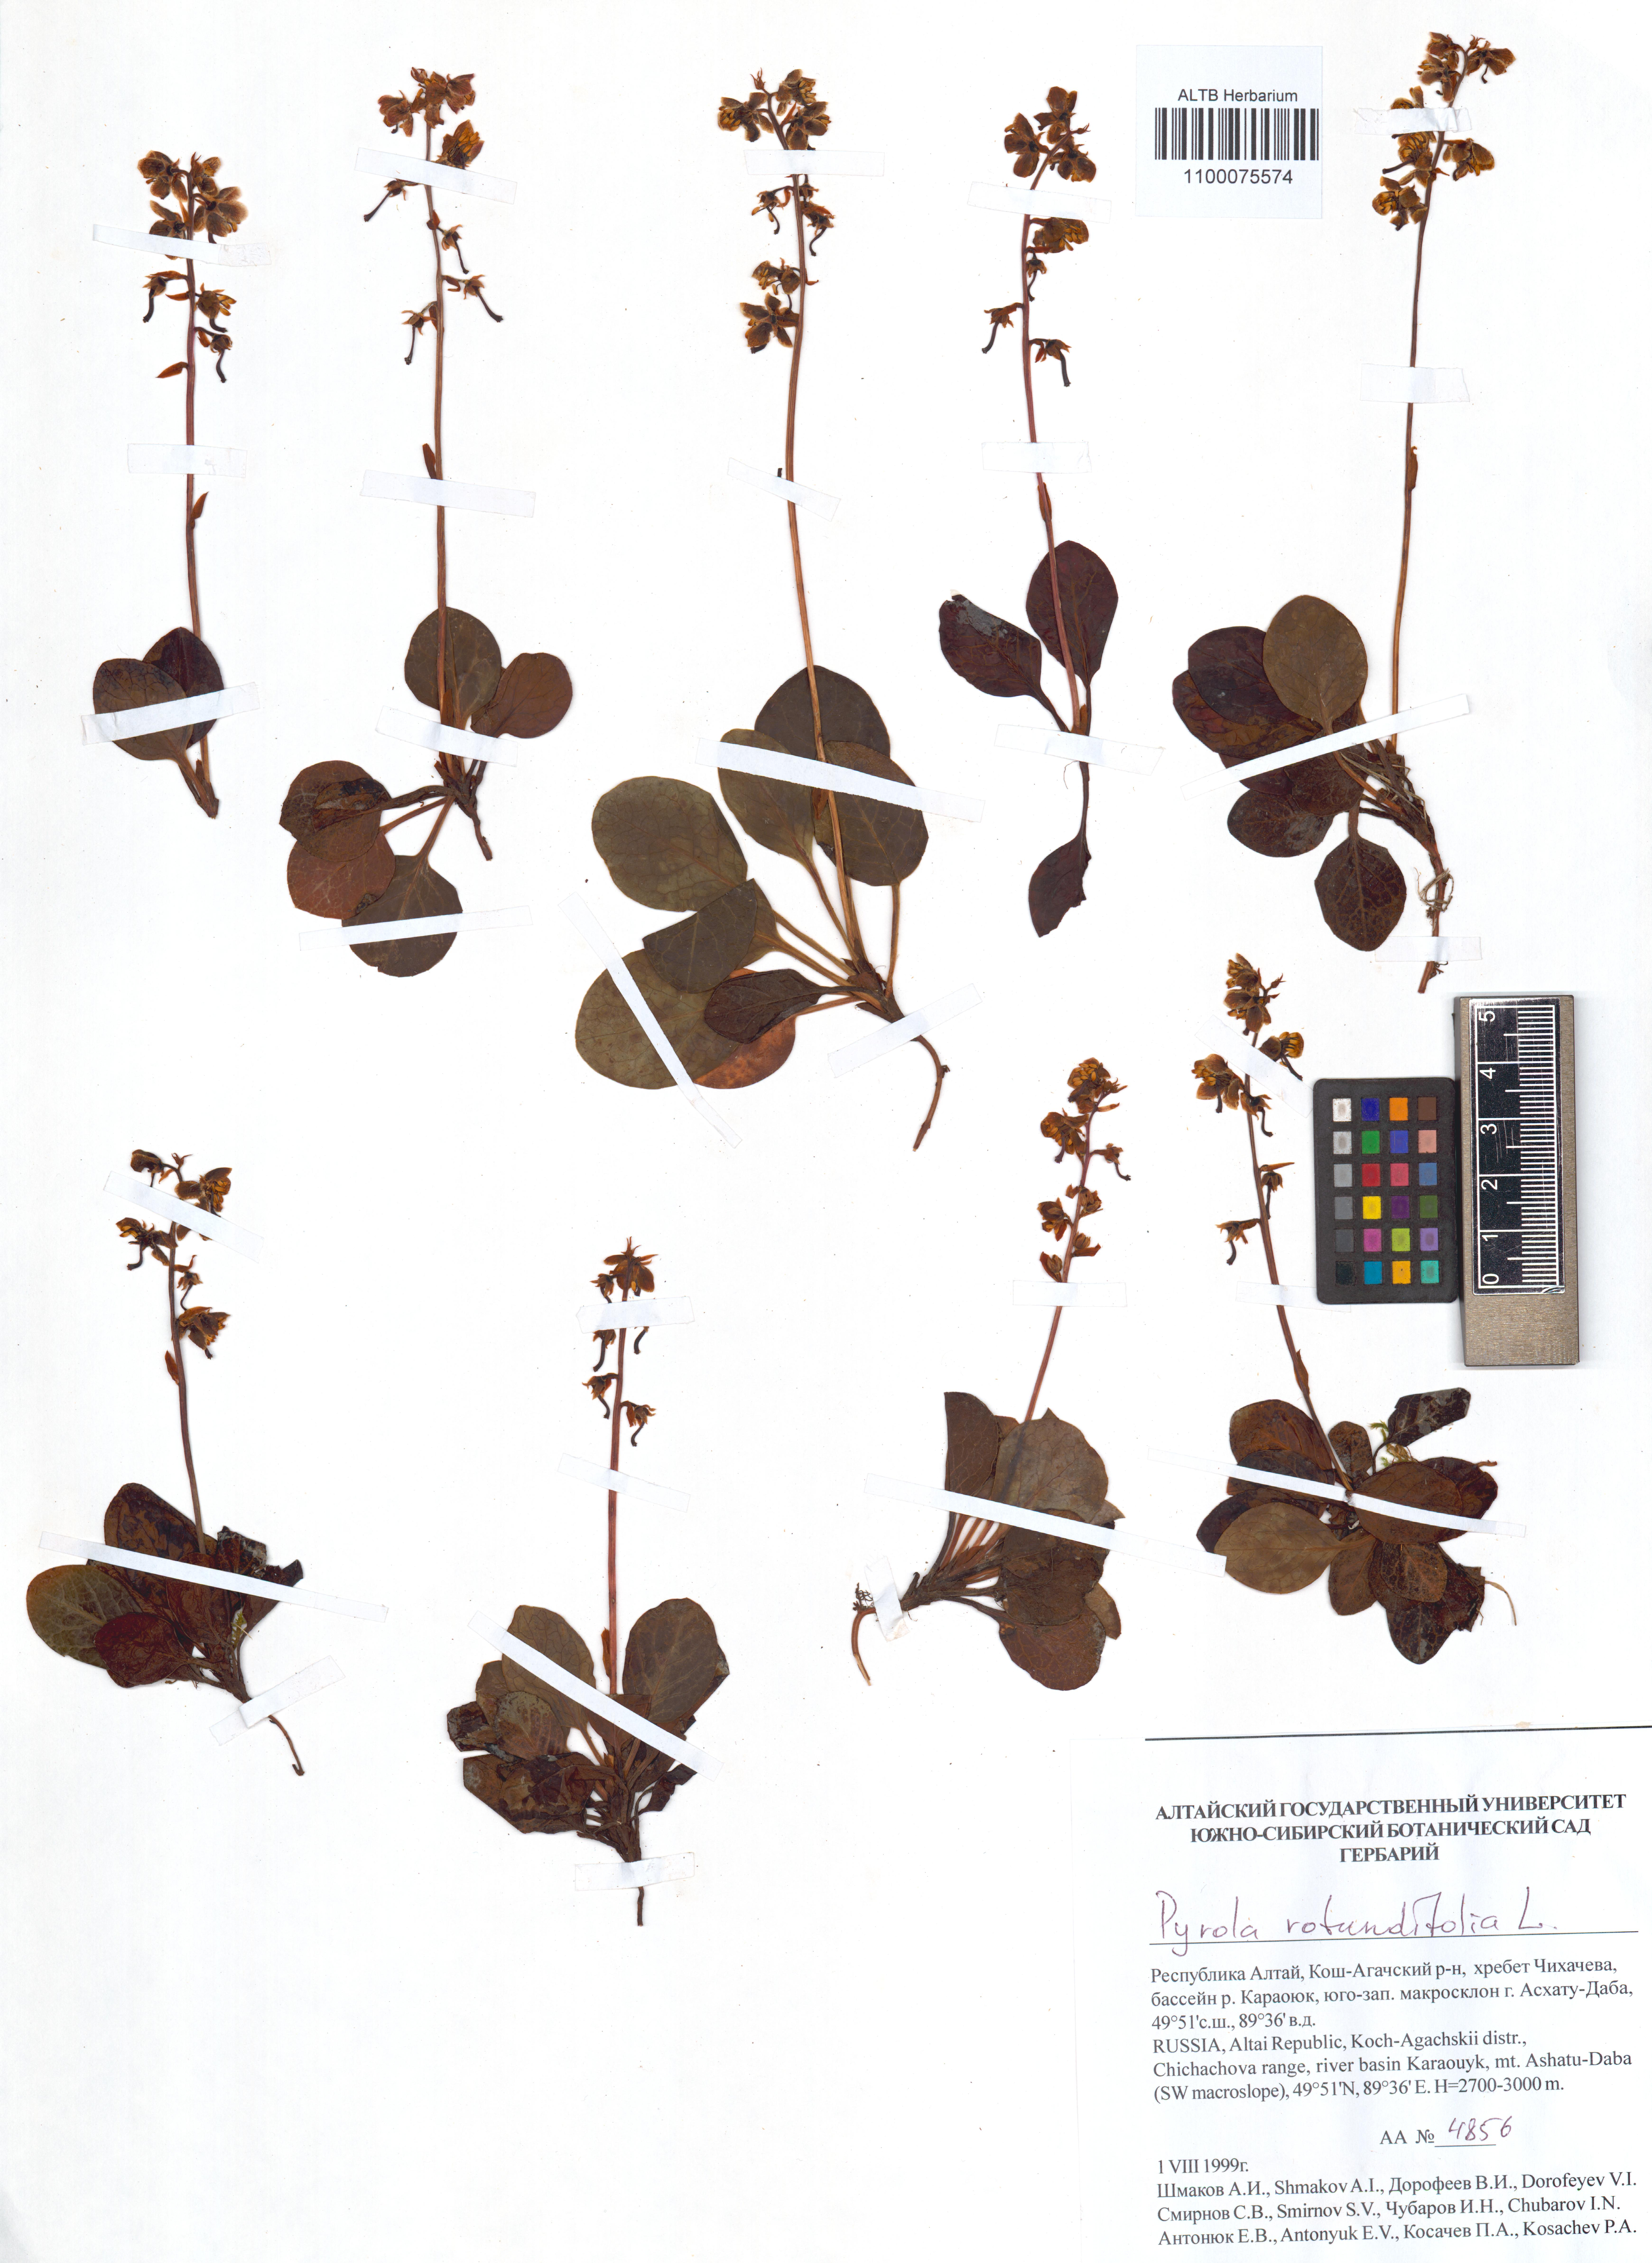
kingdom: Plantae
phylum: Tracheophyta
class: Magnoliopsida
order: Ericales
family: Ericaceae
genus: Pyrola
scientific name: Pyrola rotundifolia
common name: Round-leaved wintergreen
